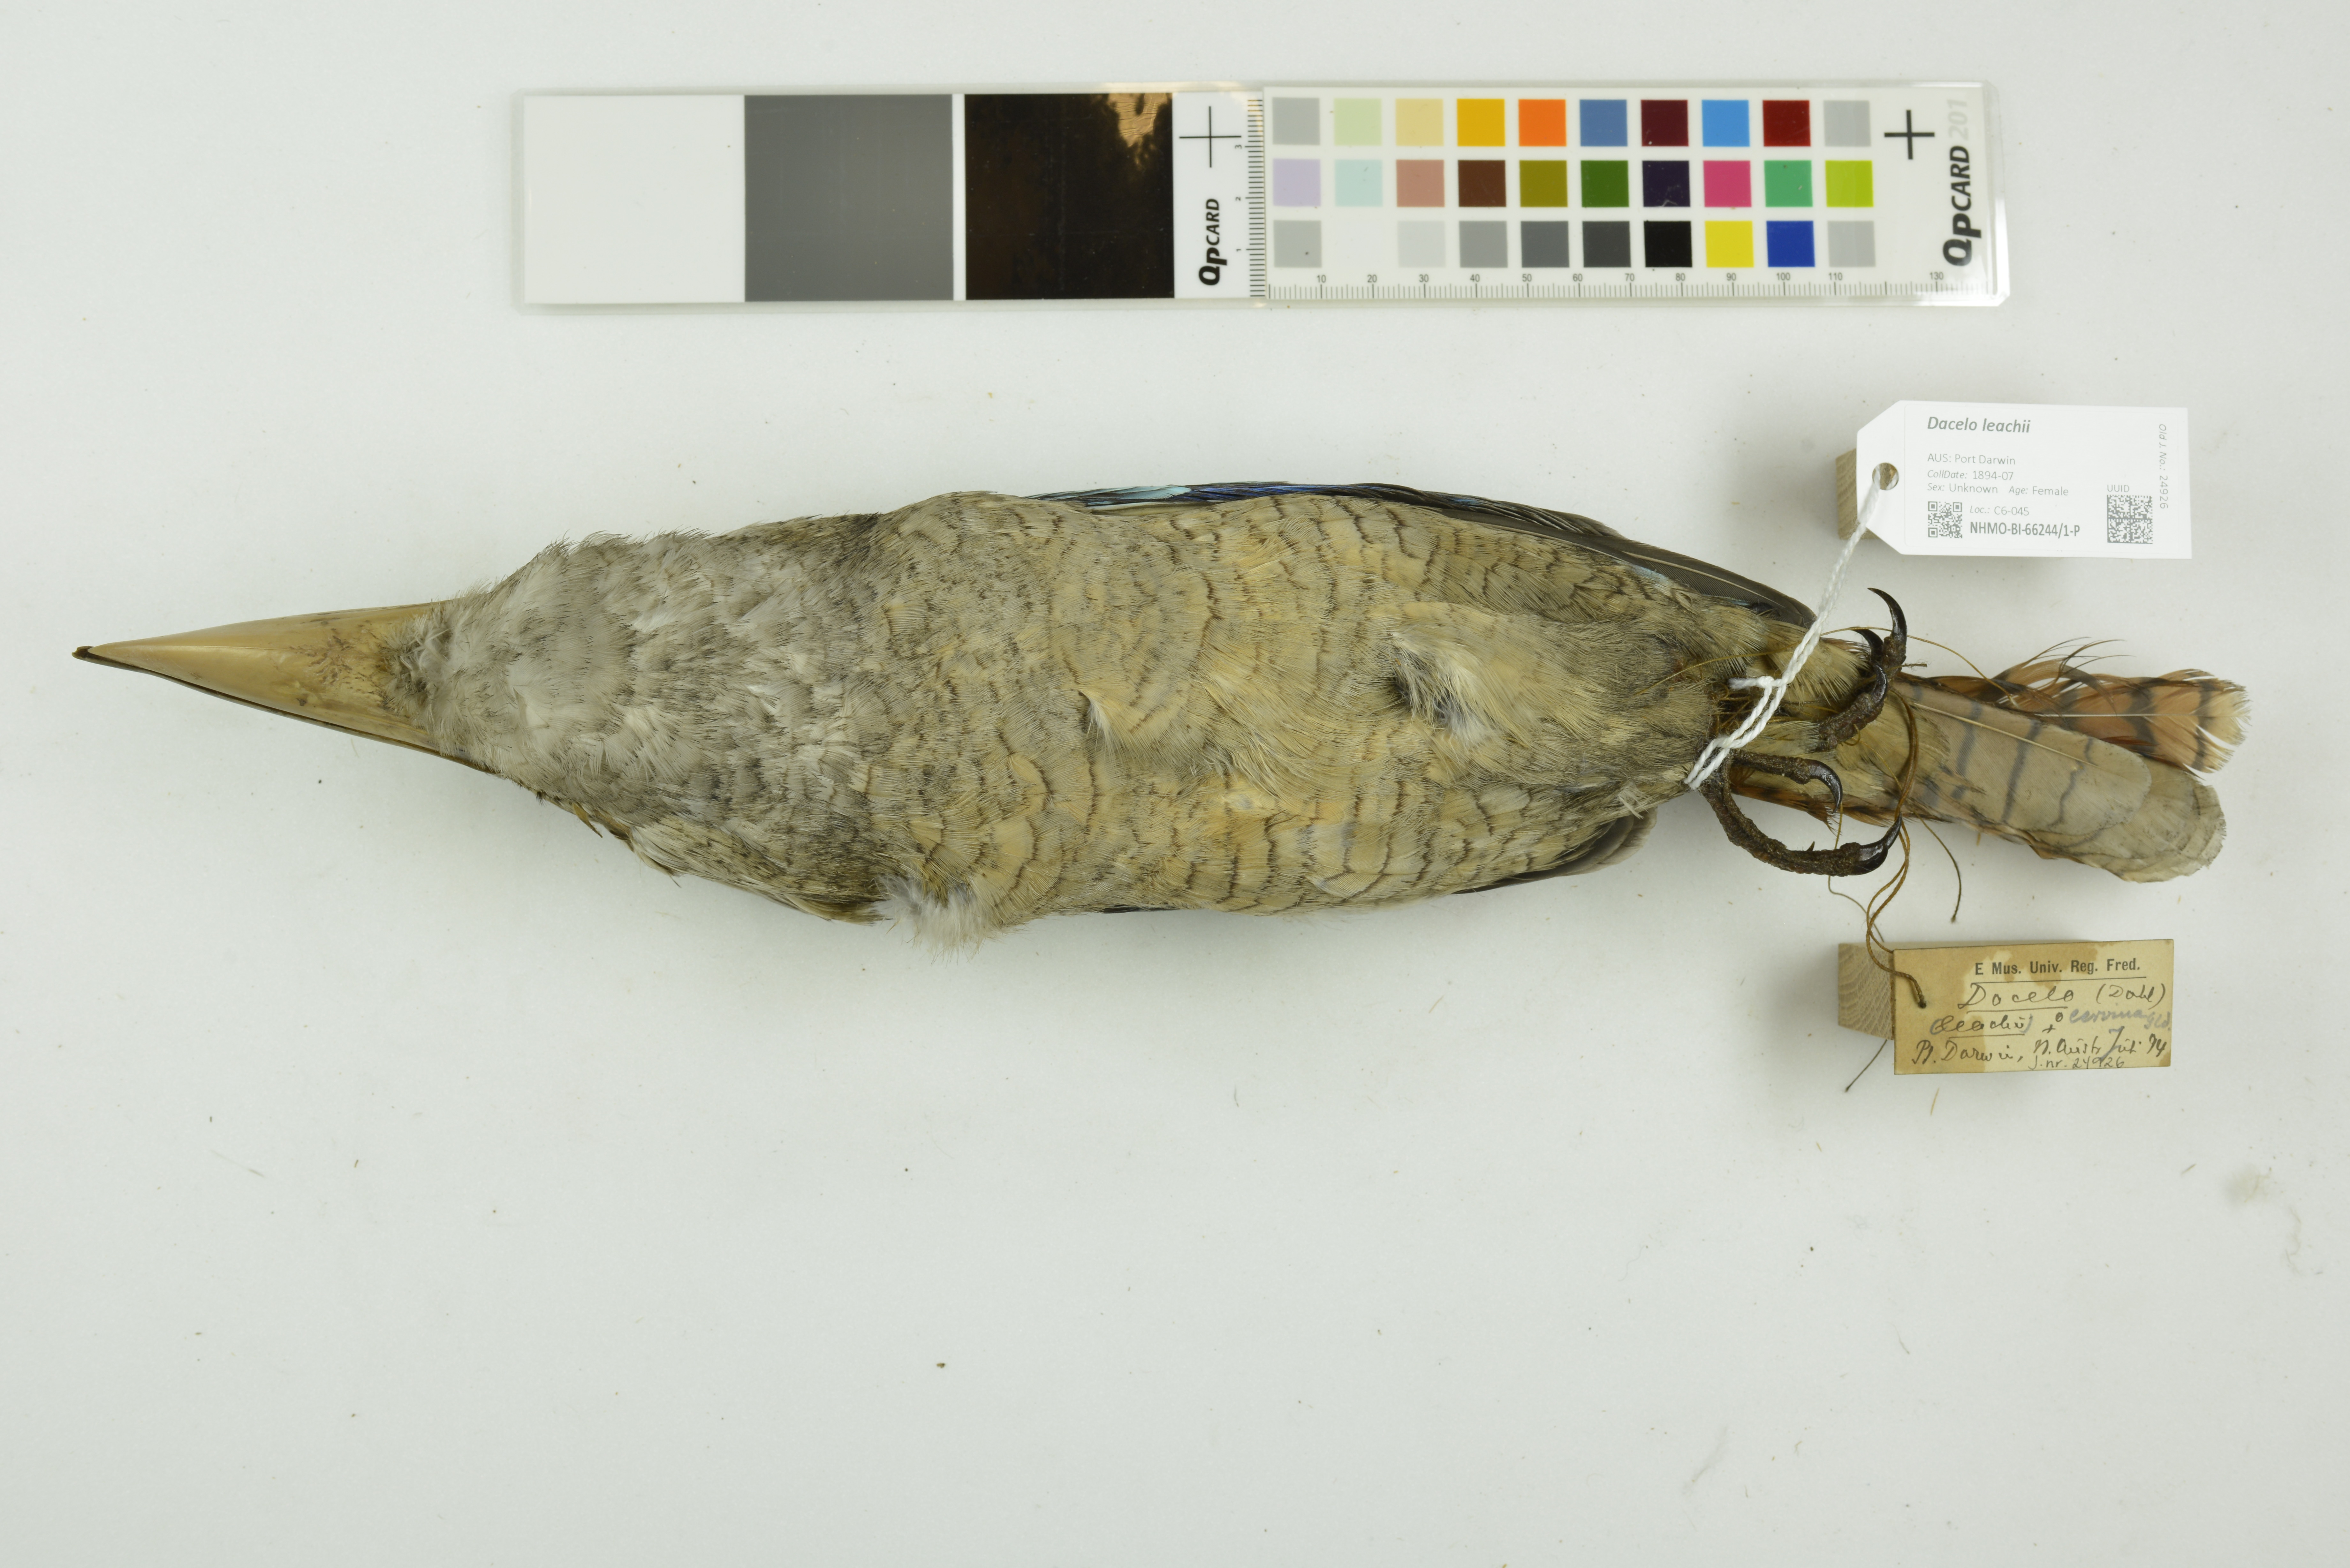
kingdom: Animalia
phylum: Chordata
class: Aves
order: Coraciiformes
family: Alcedinidae
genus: Dacelo
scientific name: Dacelo leachii
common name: Blue-winged kookaburra
